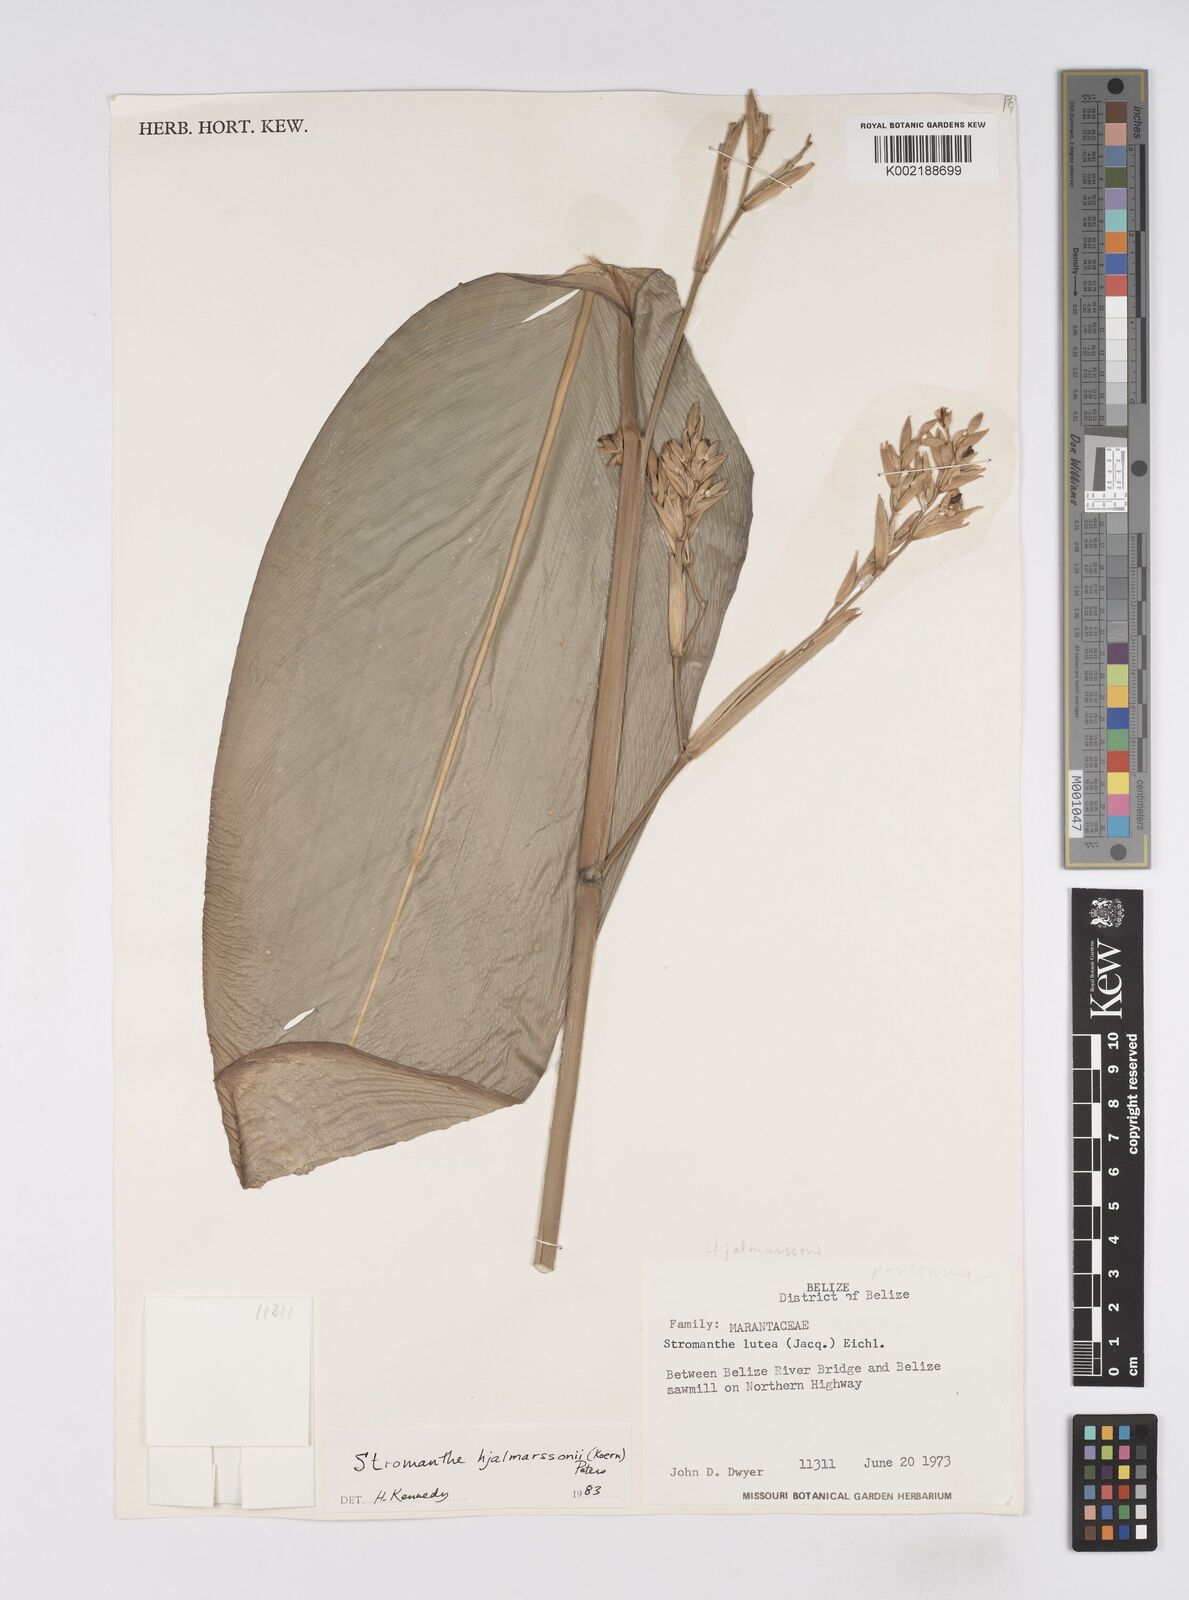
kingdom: Plantae
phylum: Tracheophyta
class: Liliopsida
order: Zingiberales
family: Marantaceae
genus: Stromanthe
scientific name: Stromanthe hjalmarssonii
